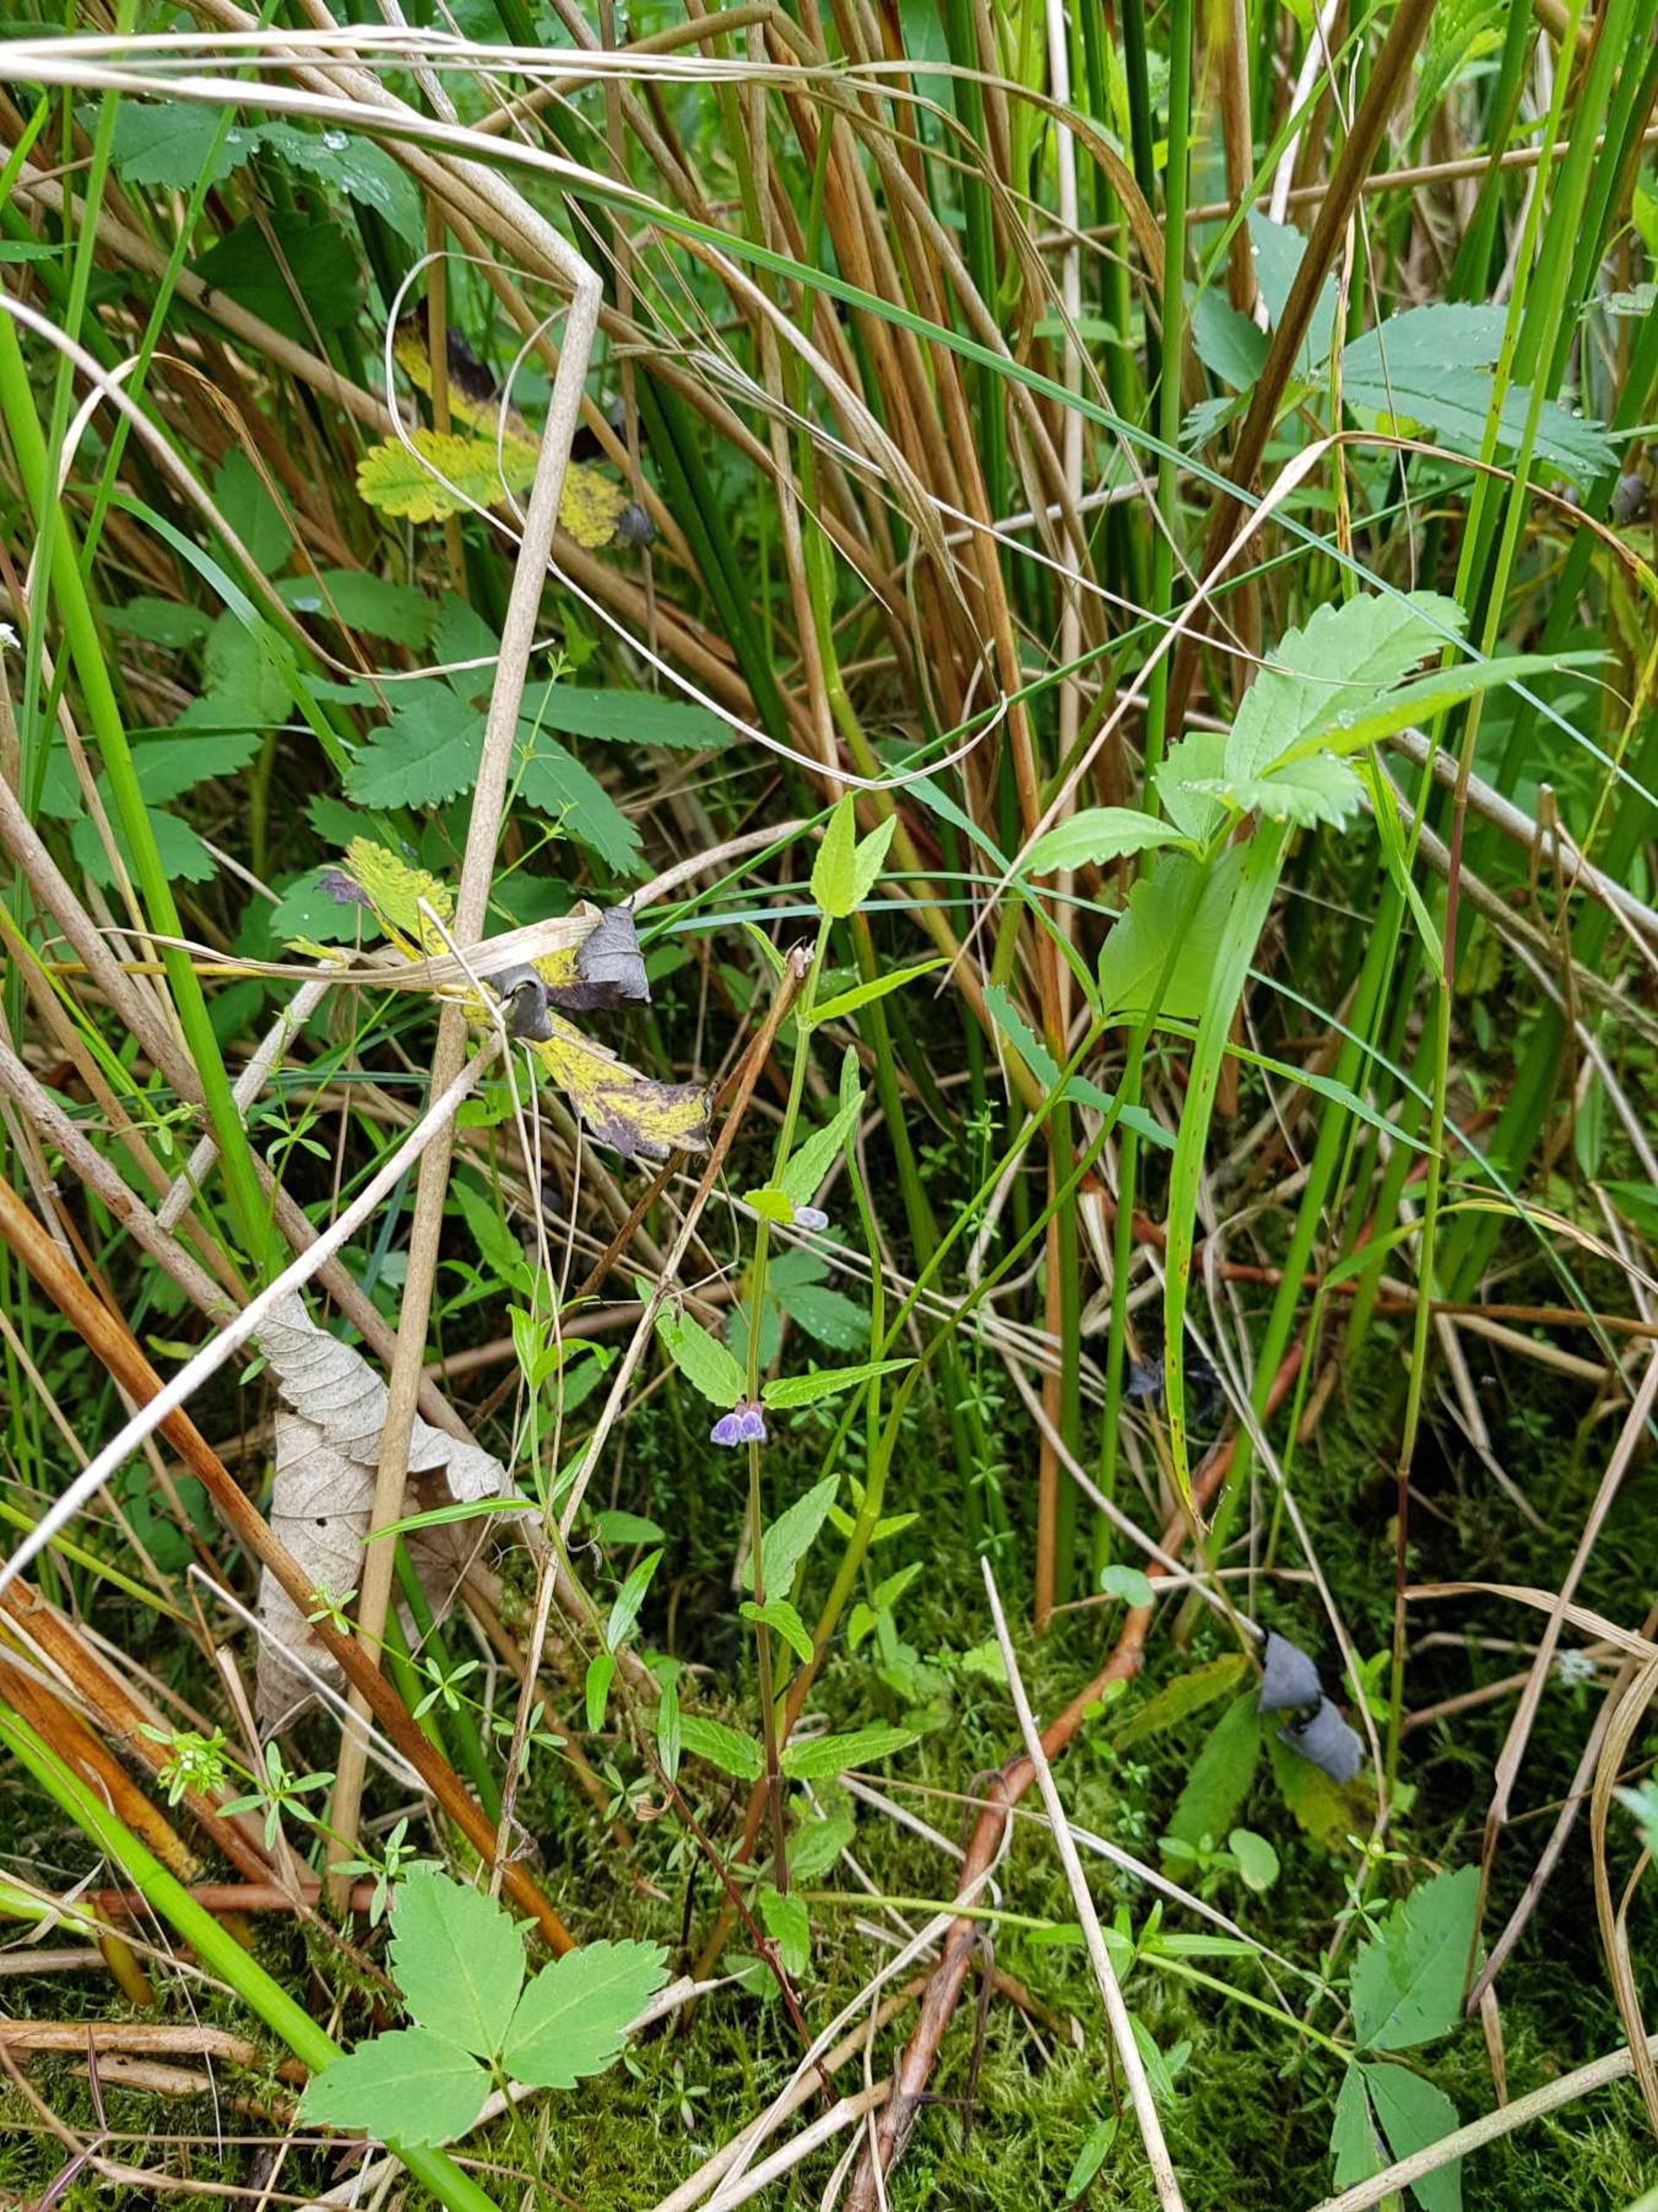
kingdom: Plantae
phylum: Tracheophyta
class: Magnoliopsida
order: Lamiales
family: Lamiaceae
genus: Scutellaria
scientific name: Scutellaria galericulata
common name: Almindelig skjolddrager
